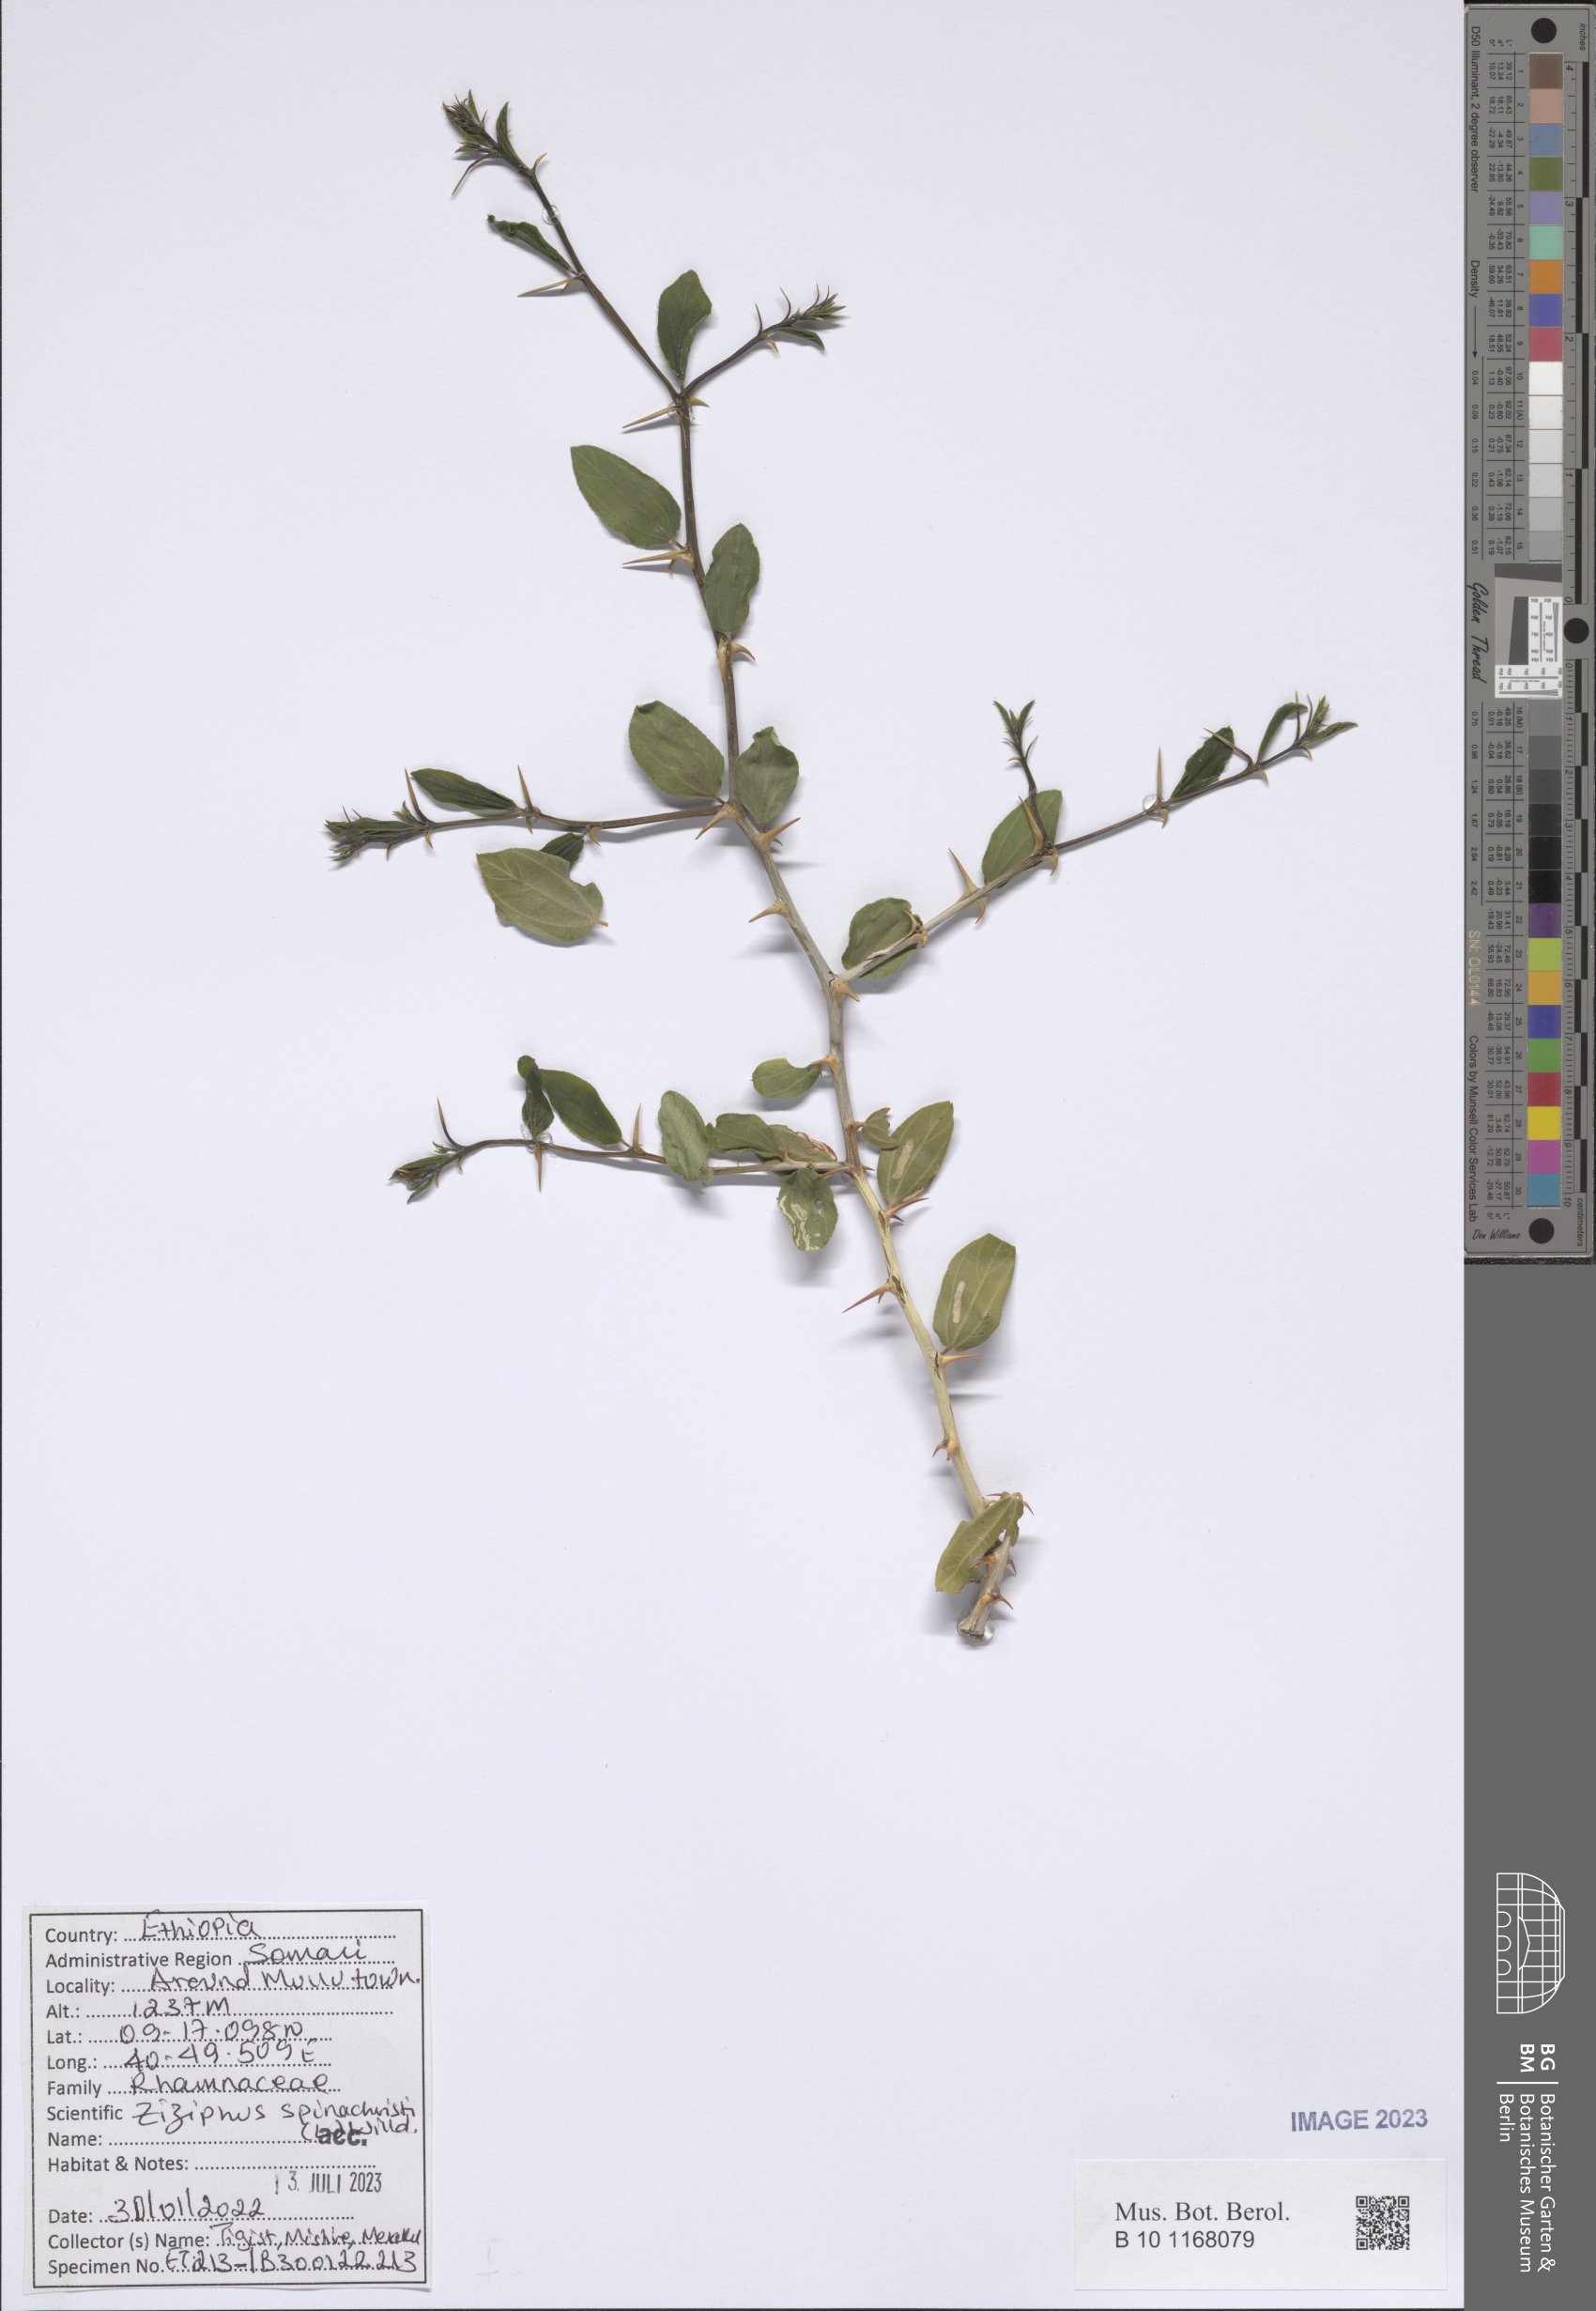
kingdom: Plantae
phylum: Tracheophyta
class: Magnoliopsida
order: Rosales
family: Rhamnaceae
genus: Ziziphus
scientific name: Ziziphus spina-christi
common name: Syrian christ-thorn
